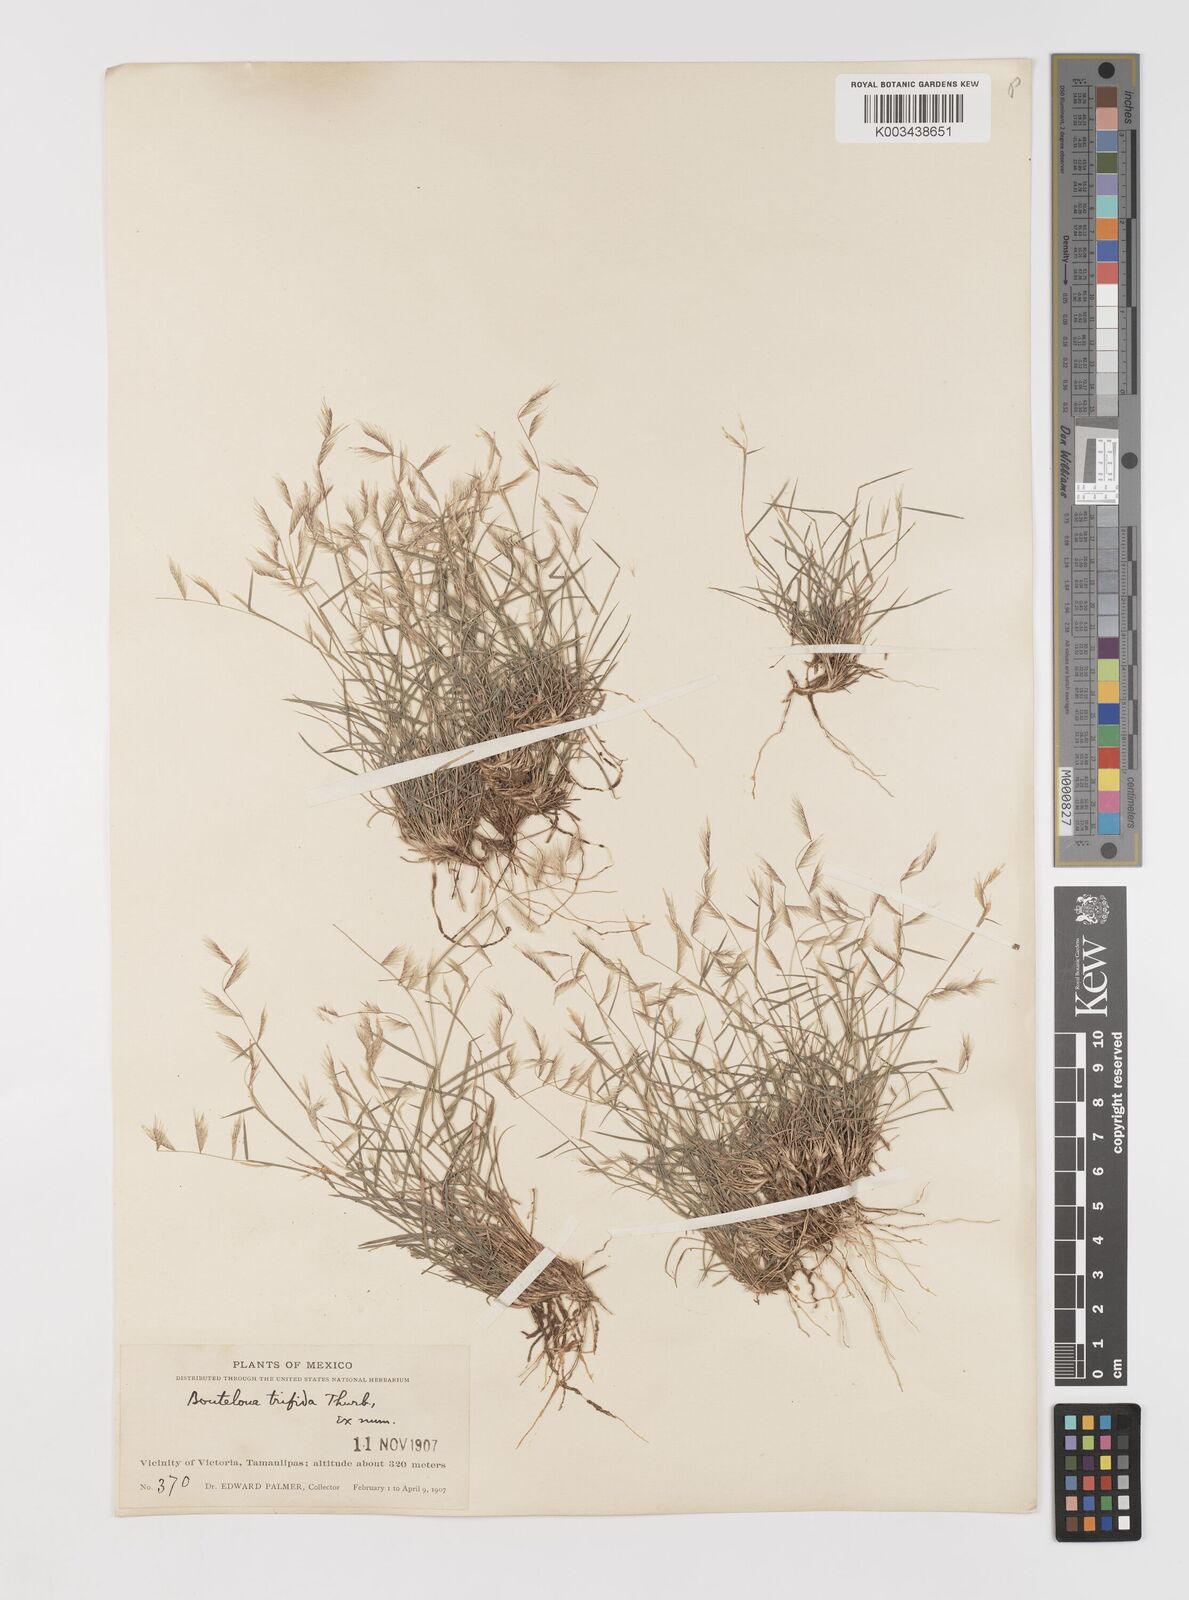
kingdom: Plantae
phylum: Tracheophyta
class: Liliopsida
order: Poales
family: Poaceae
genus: Bouteloua
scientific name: Bouteloua
